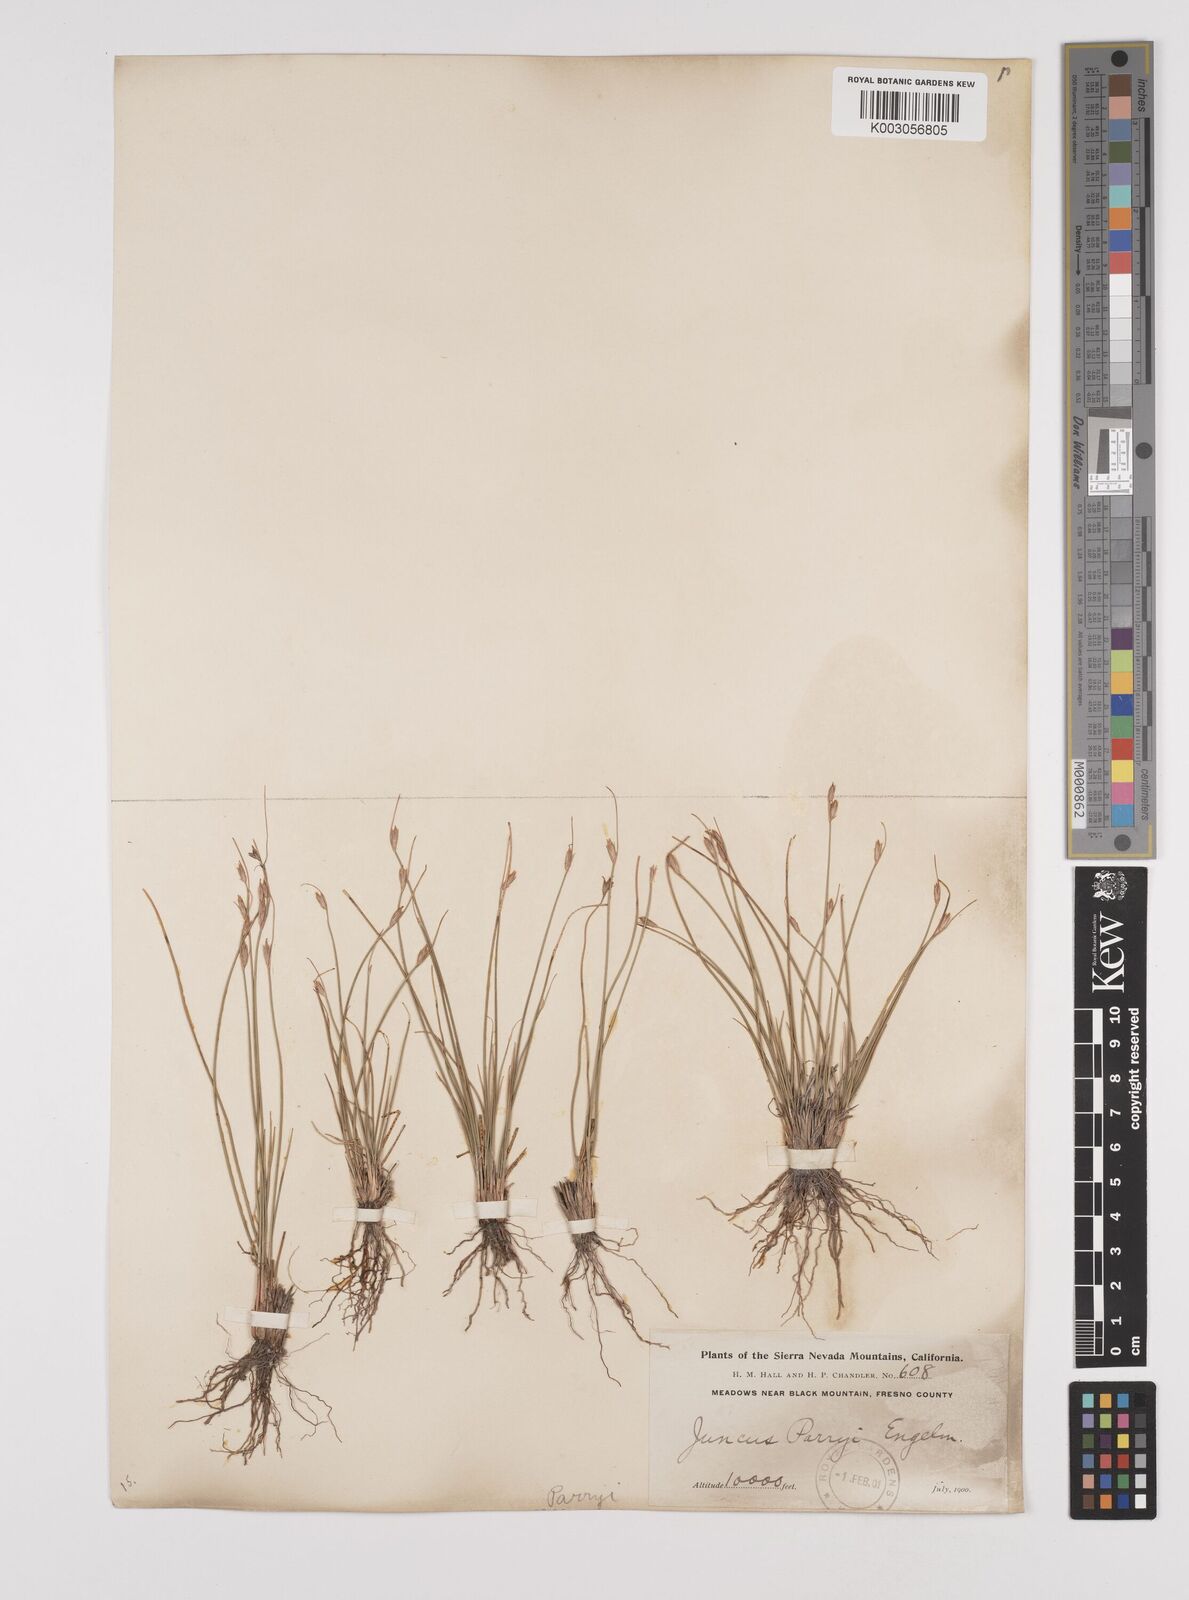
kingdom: Plantae
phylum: Tracheophyta
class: Liliopsida
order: Poales
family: Juncaceae
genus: Juncus
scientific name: Juncus parryi
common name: Parry's rush
